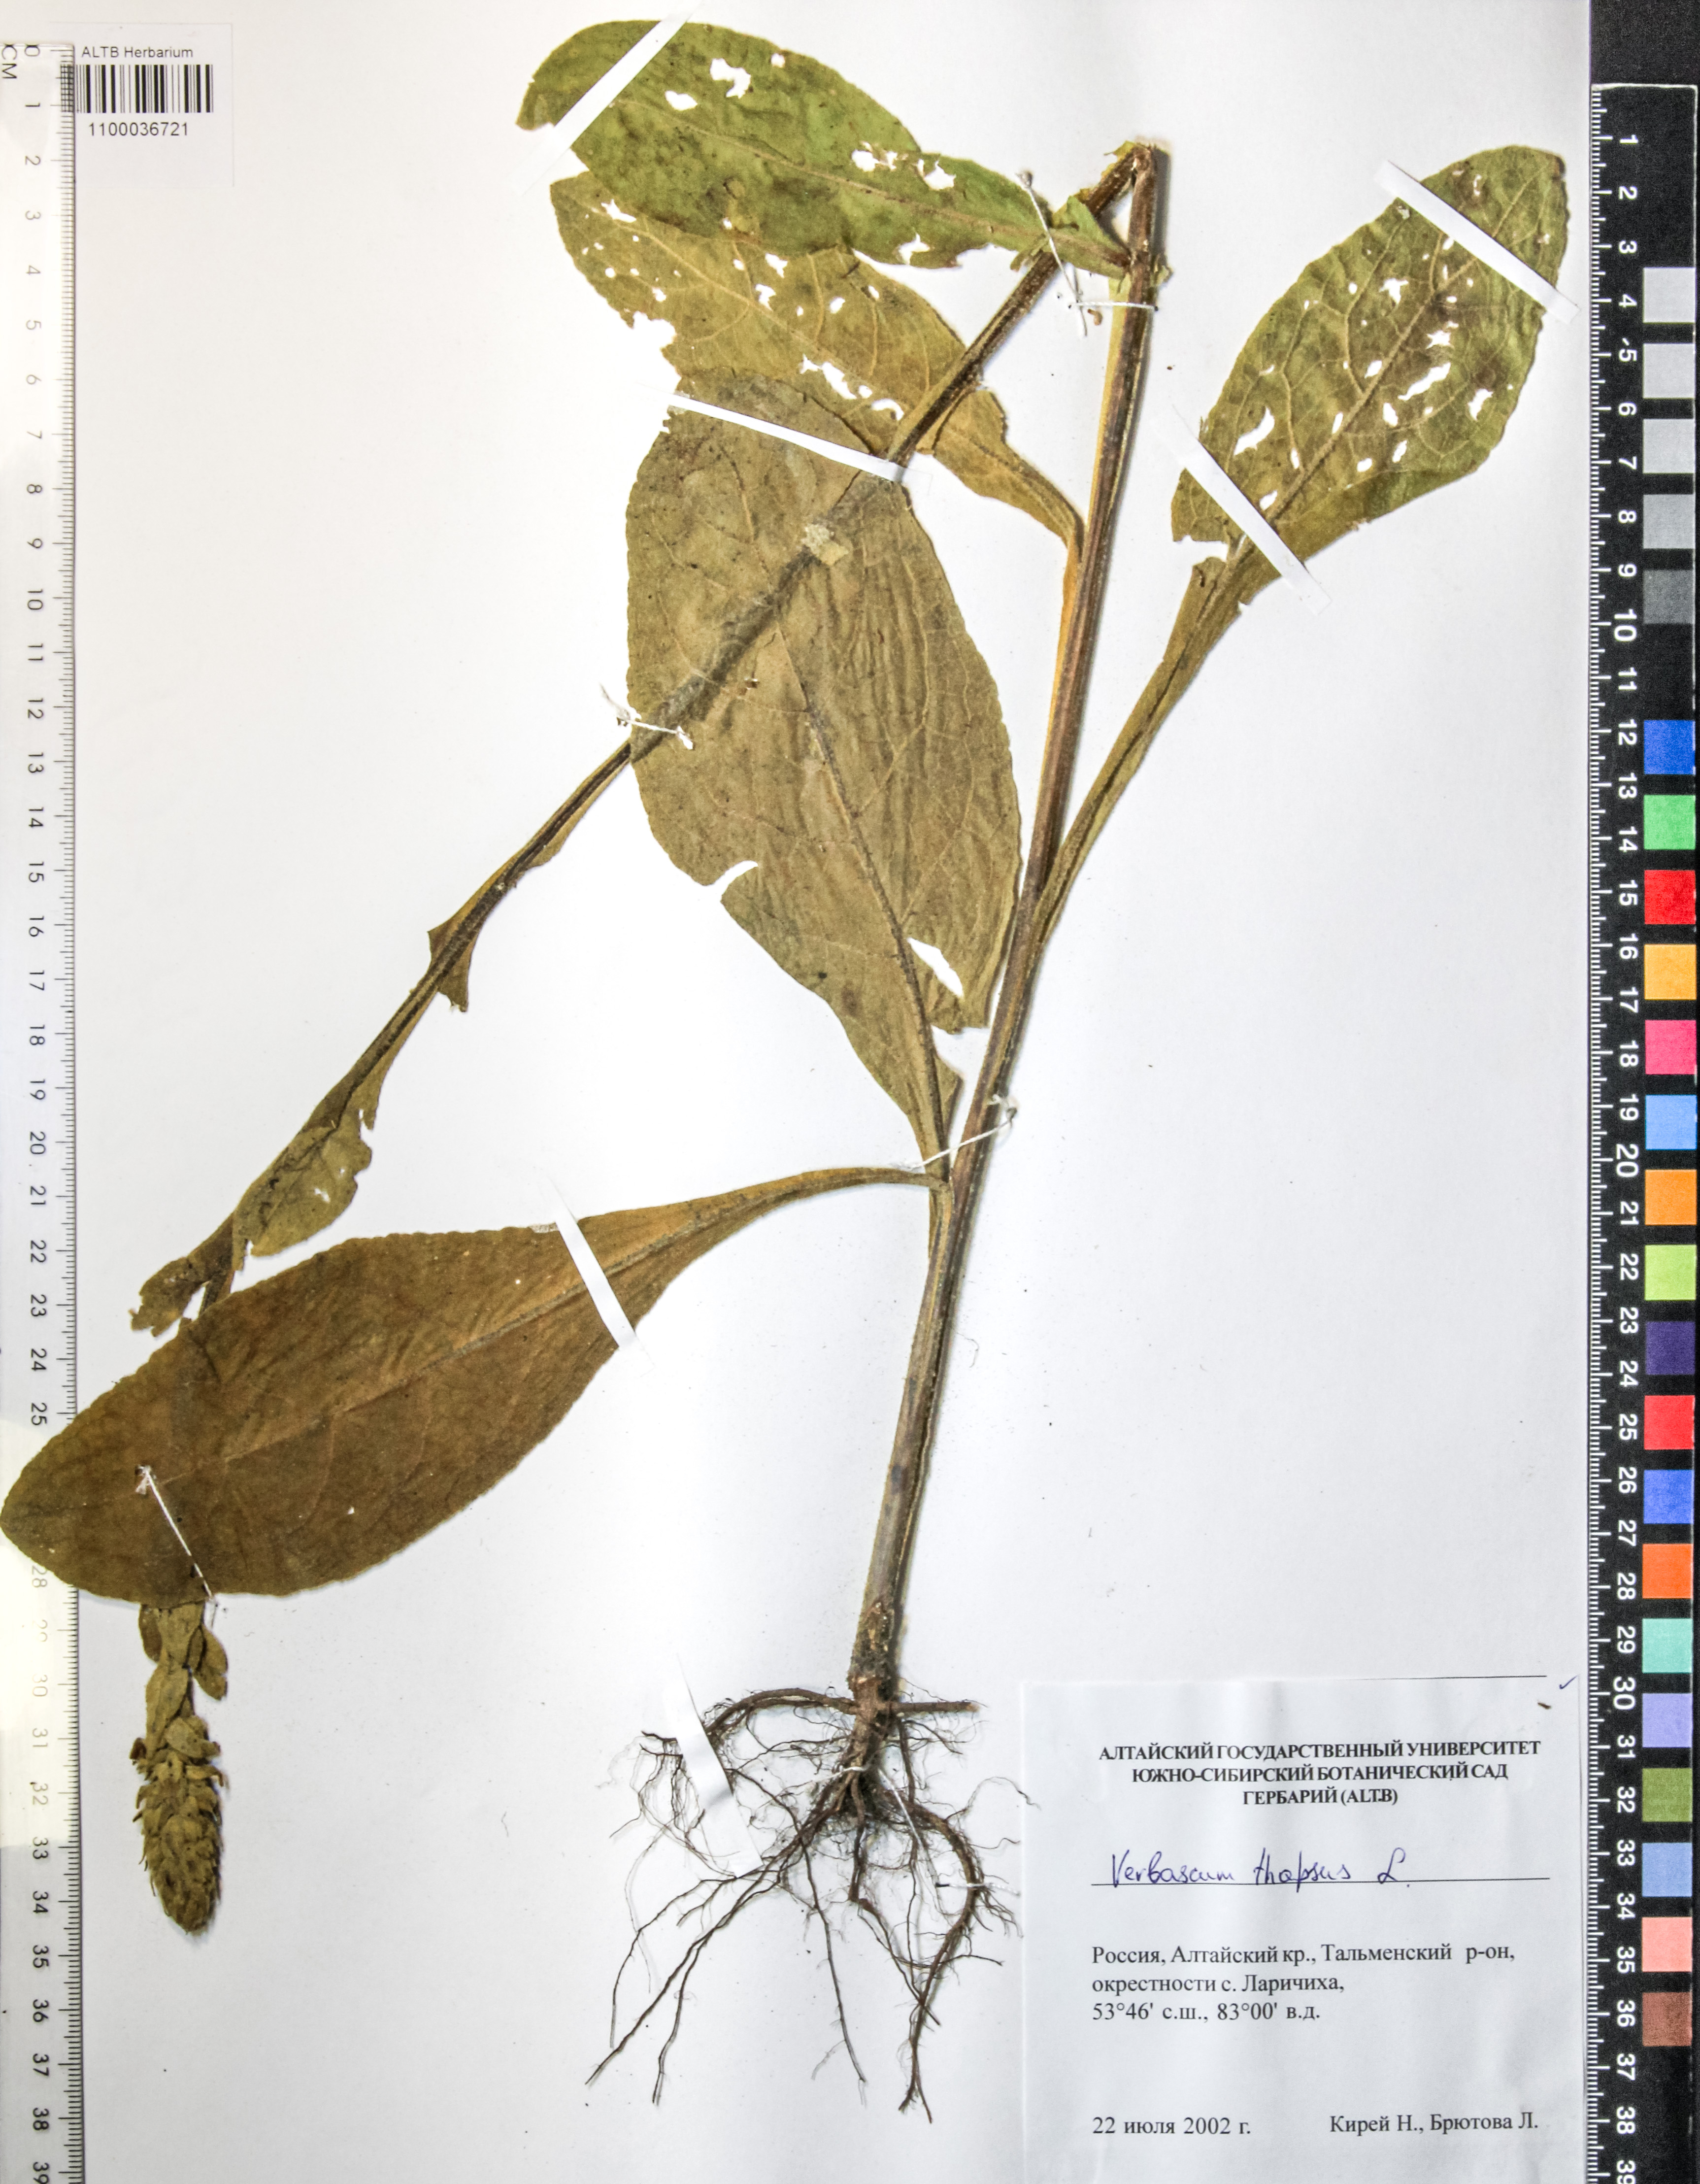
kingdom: Plantae
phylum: Tracheophyta
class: Magnoliopsida
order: Lamiales
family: Scrophulariaceae
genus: Verbascum
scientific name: Verbascum thapsus
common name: Common mullein
